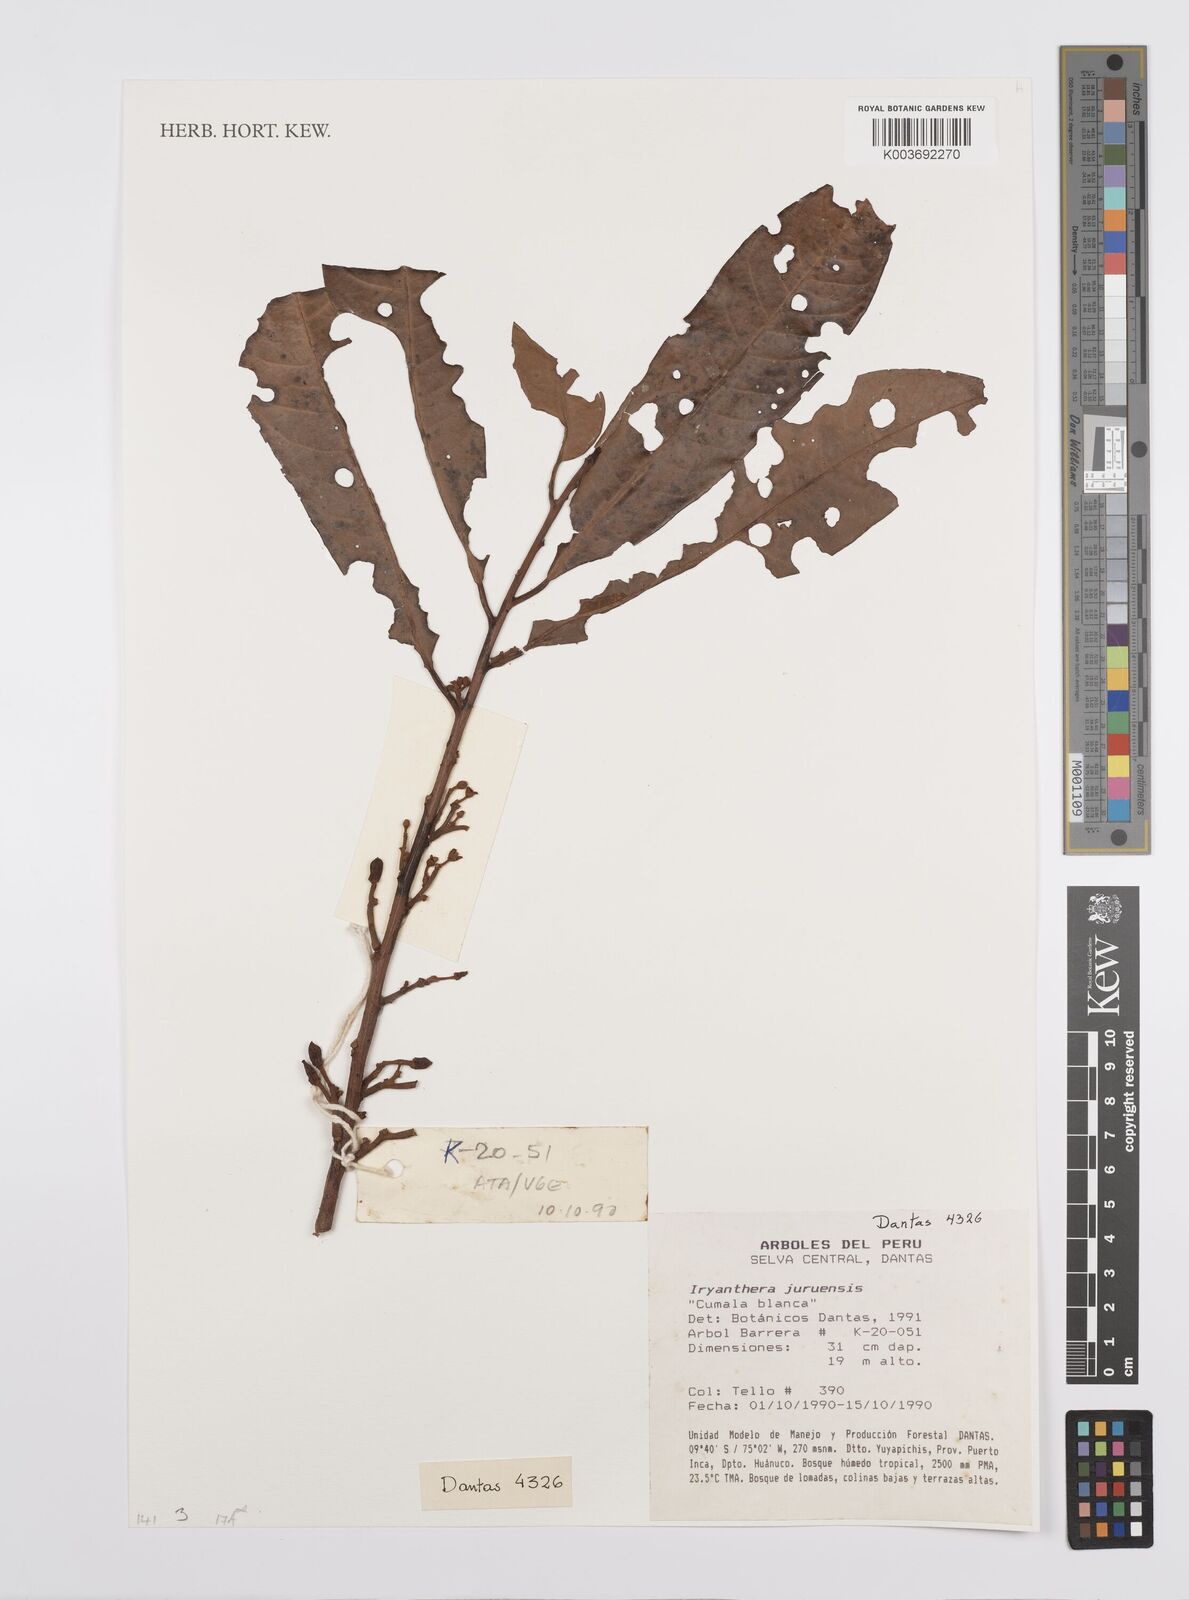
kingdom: Plantae
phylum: Tracheophyta
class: Magnoliopsida
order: Magnoliales
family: Myristicaceae
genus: Iryanthera
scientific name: Iryanthera juruensis
